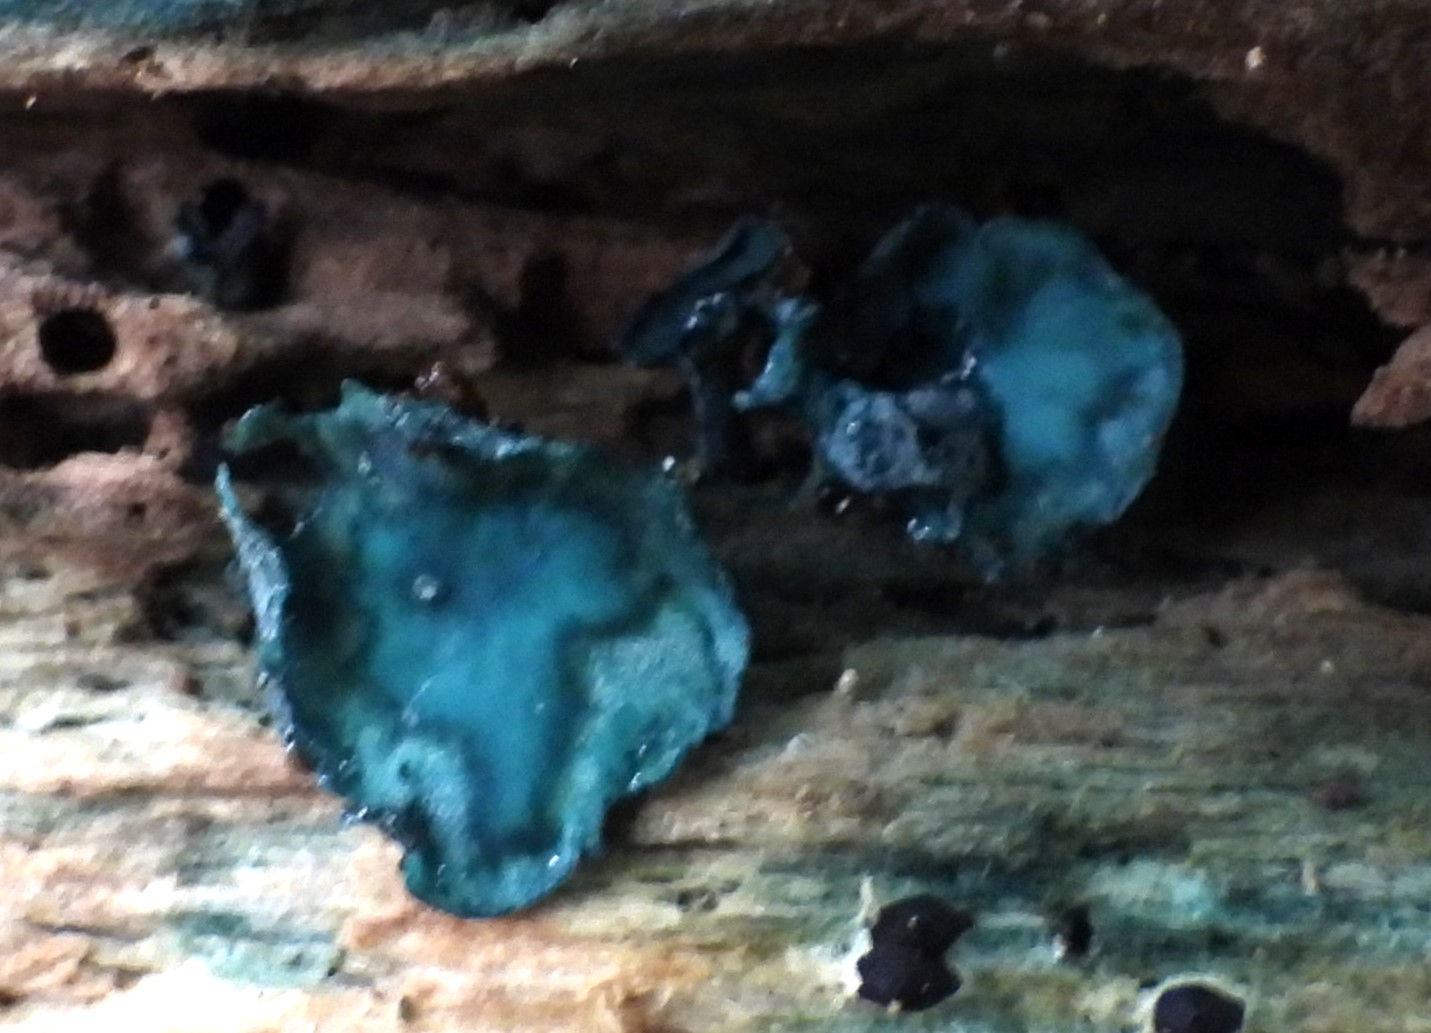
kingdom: Fungi
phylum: Ascomycota
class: Leotiomycetes
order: Helotiales
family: Chlorociboriaceae
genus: Chlorociboria
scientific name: Chlorociboria aeruginascens
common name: almindelig grønskive
